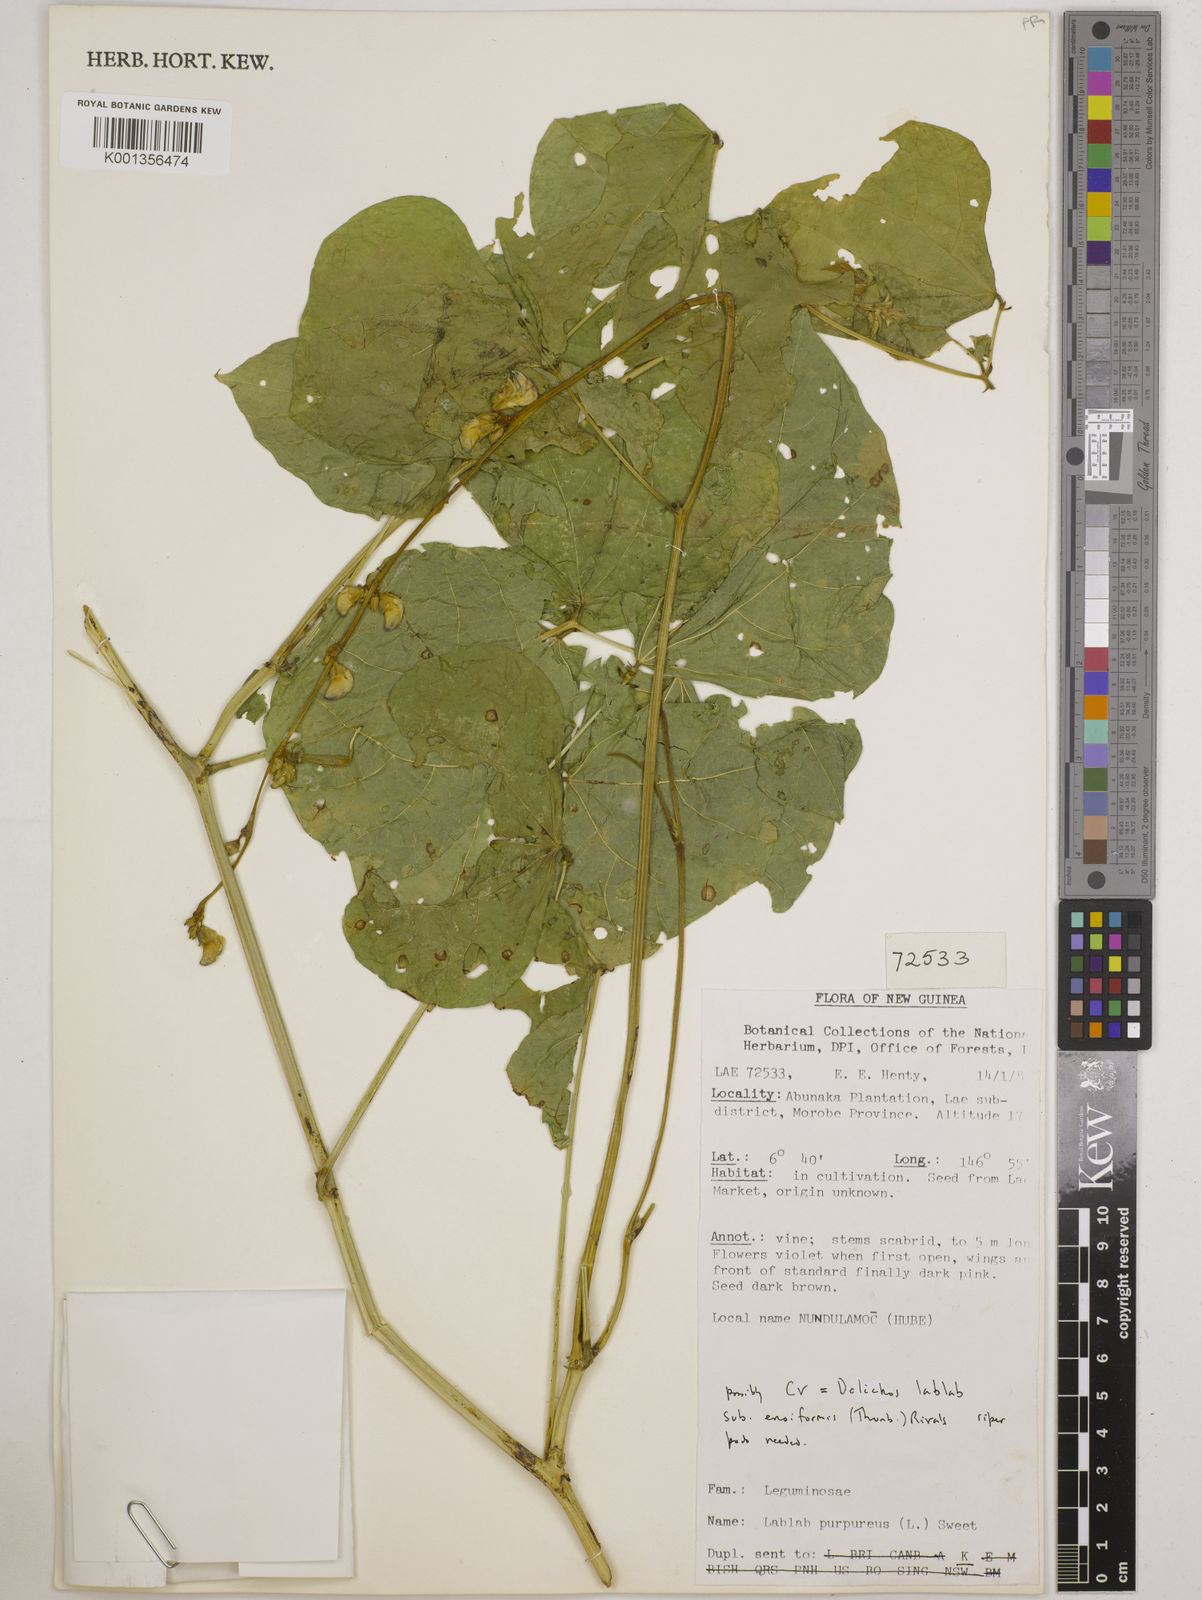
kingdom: Plantae
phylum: Tracheophyta
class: Magnoliopsida
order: Fabales
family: Fabaceae
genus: Lablab
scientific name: Lablab purpureus
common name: Lablab-bean
